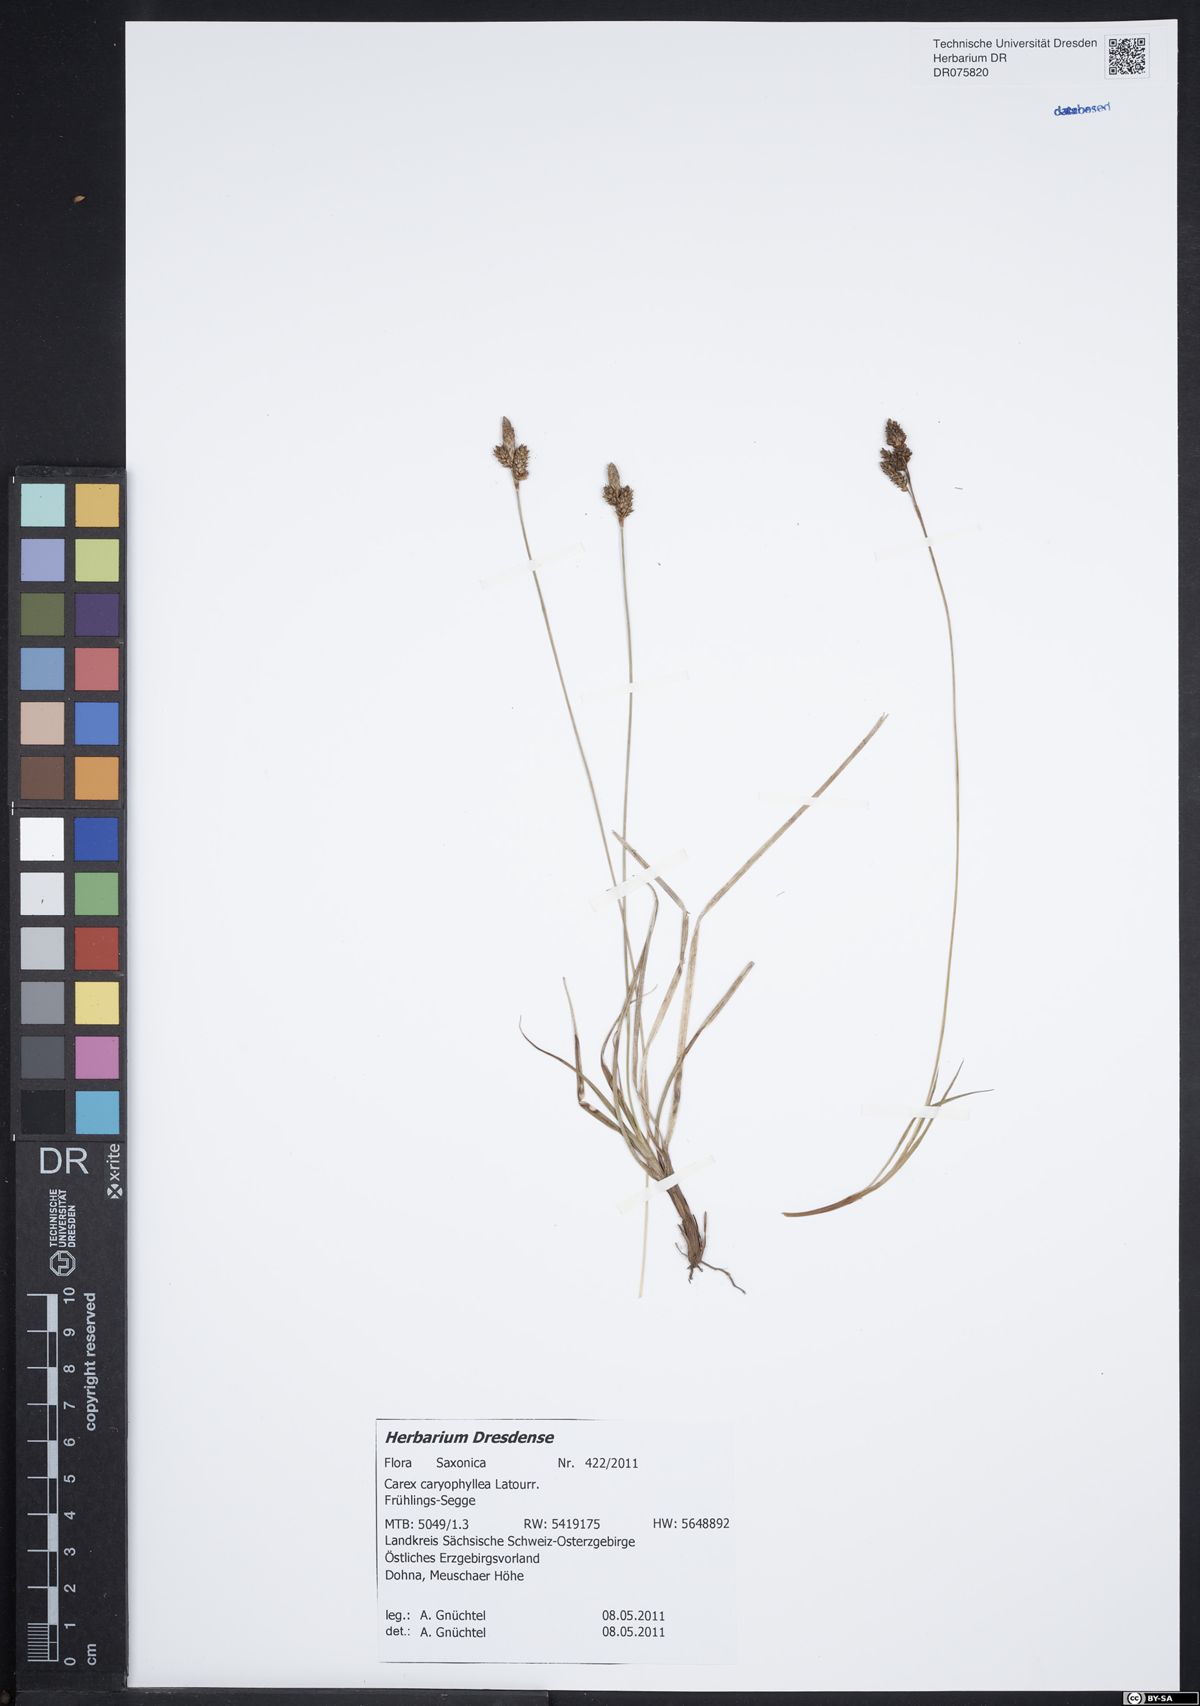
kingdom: Plantae
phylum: Tracheophyta
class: Liliopsida
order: Poales
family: Cyperaceae
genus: Carex
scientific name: Carex caryophyllea
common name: Spring sedge
